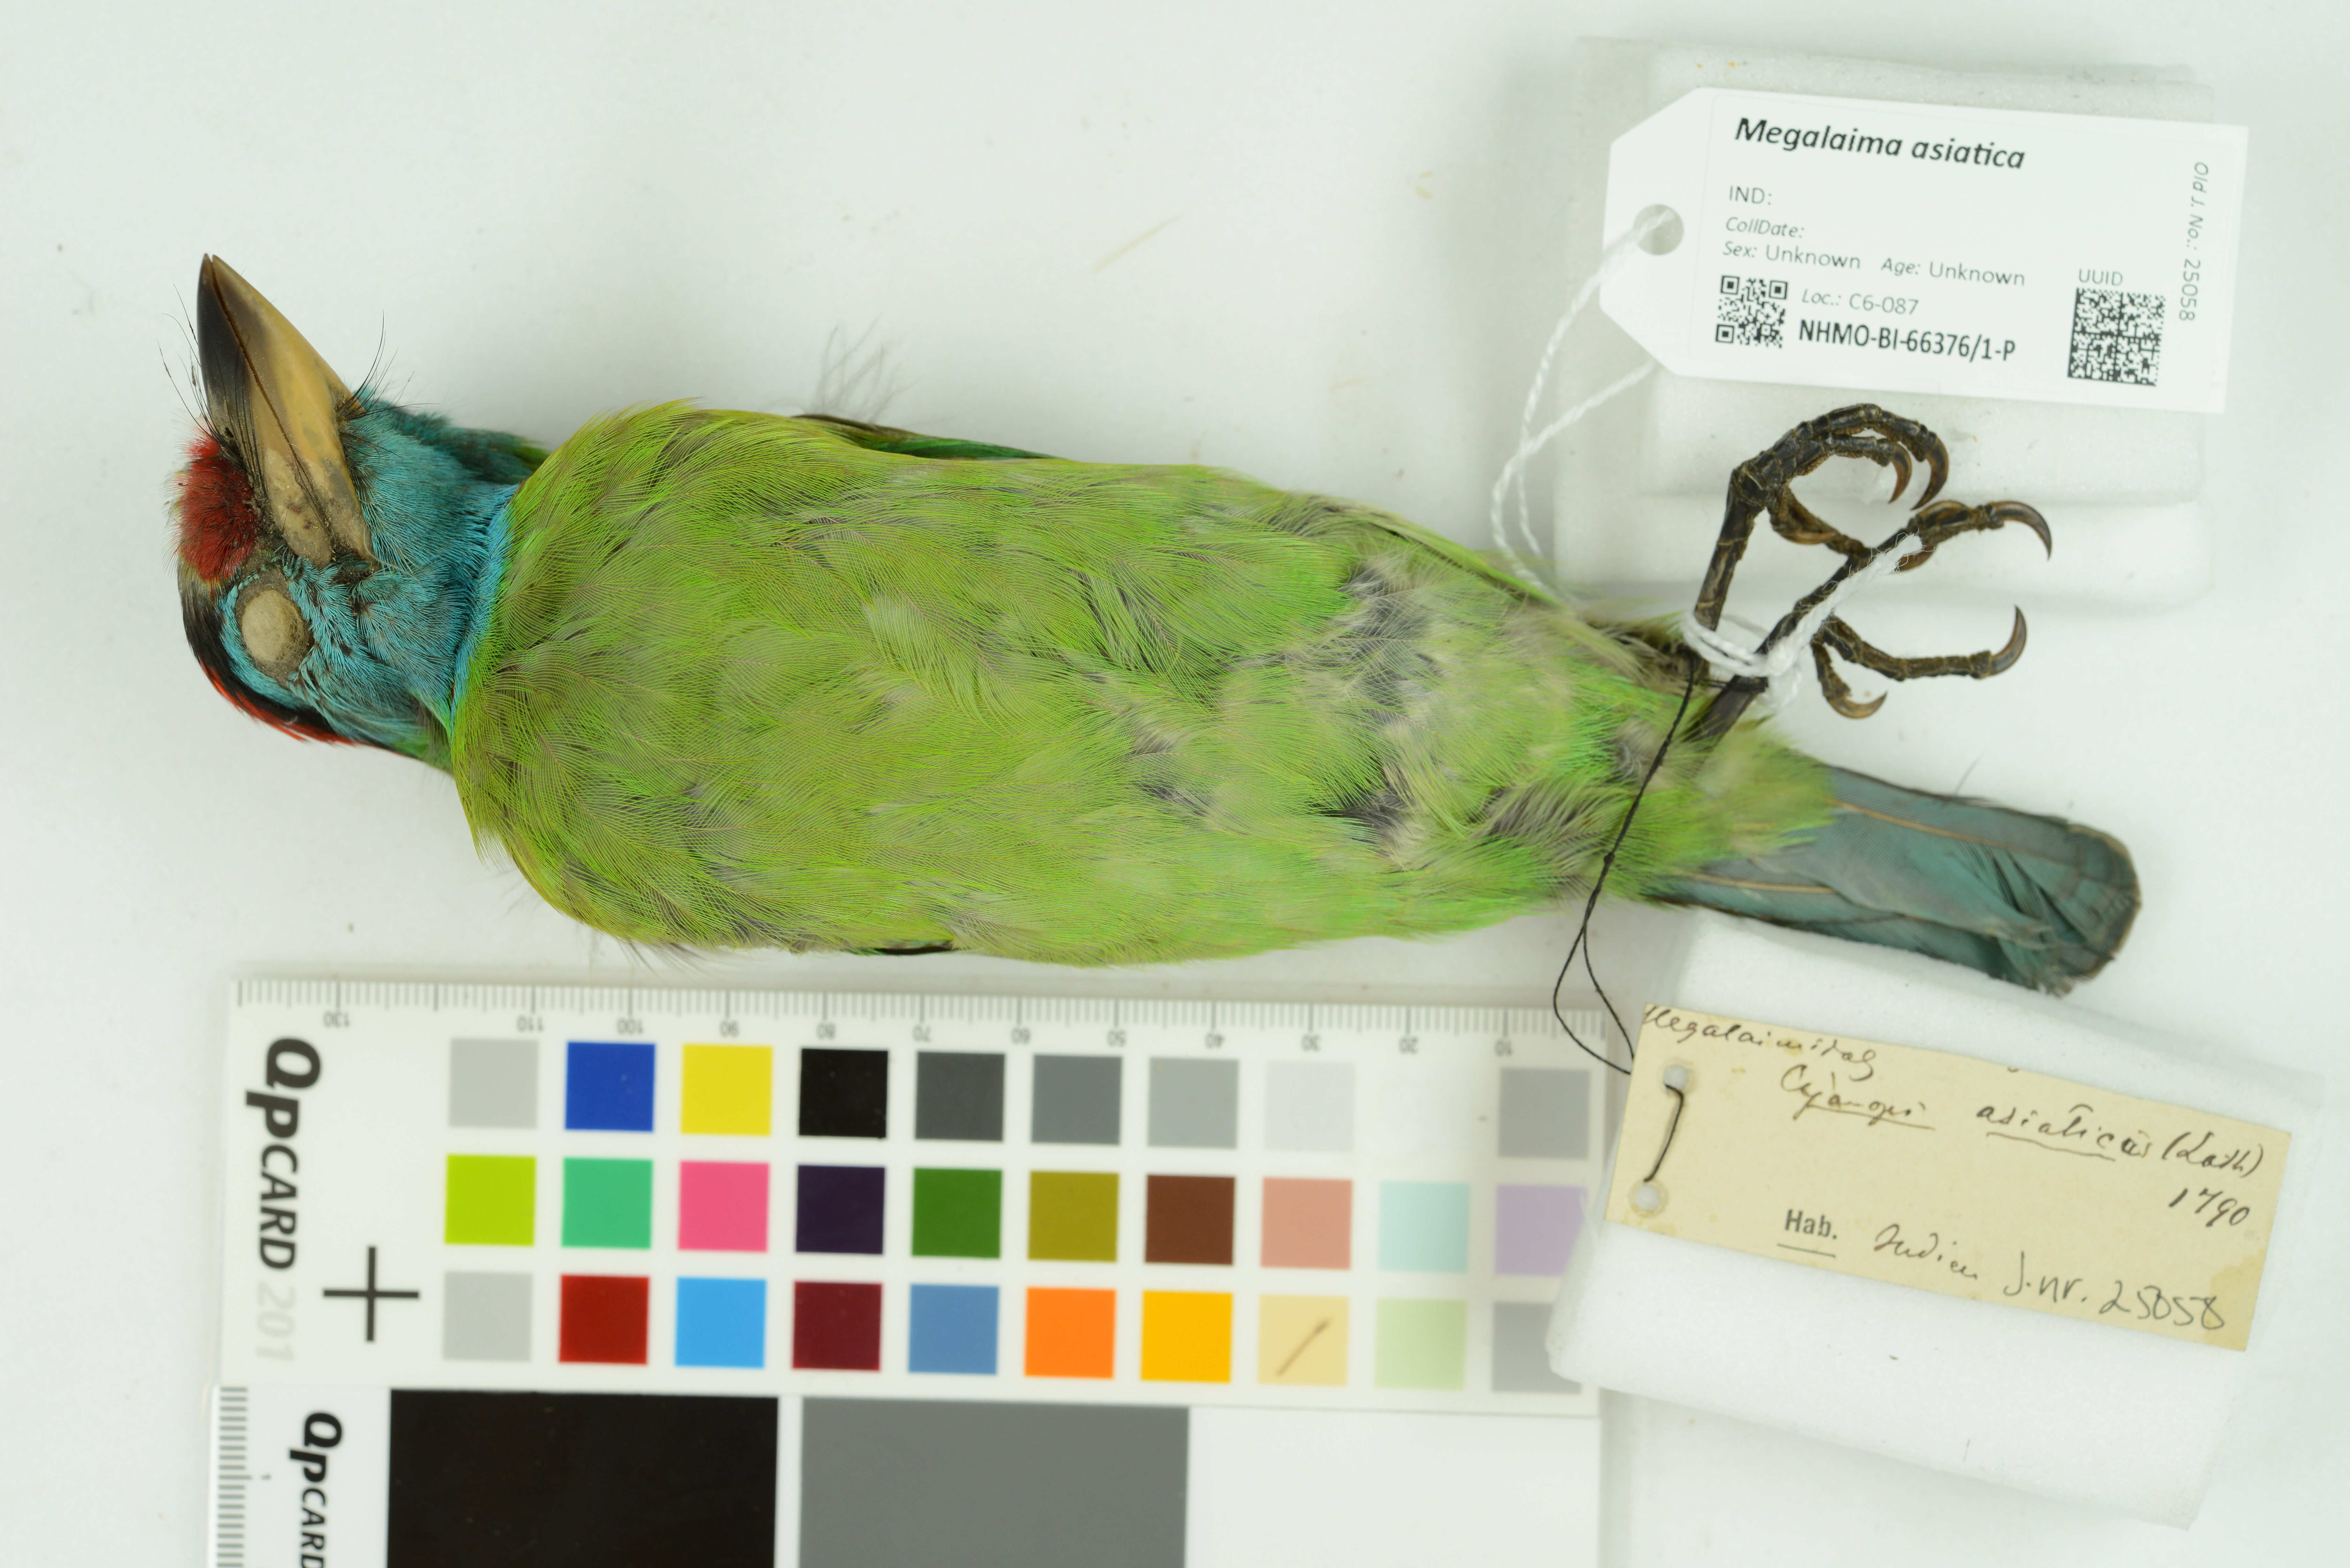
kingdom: Animalia
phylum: Chordata
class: Aves
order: Piciformes
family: Megalaimidae
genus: Psilopogon
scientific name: Psilopogon asiaticus
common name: Blue-throated barbet
